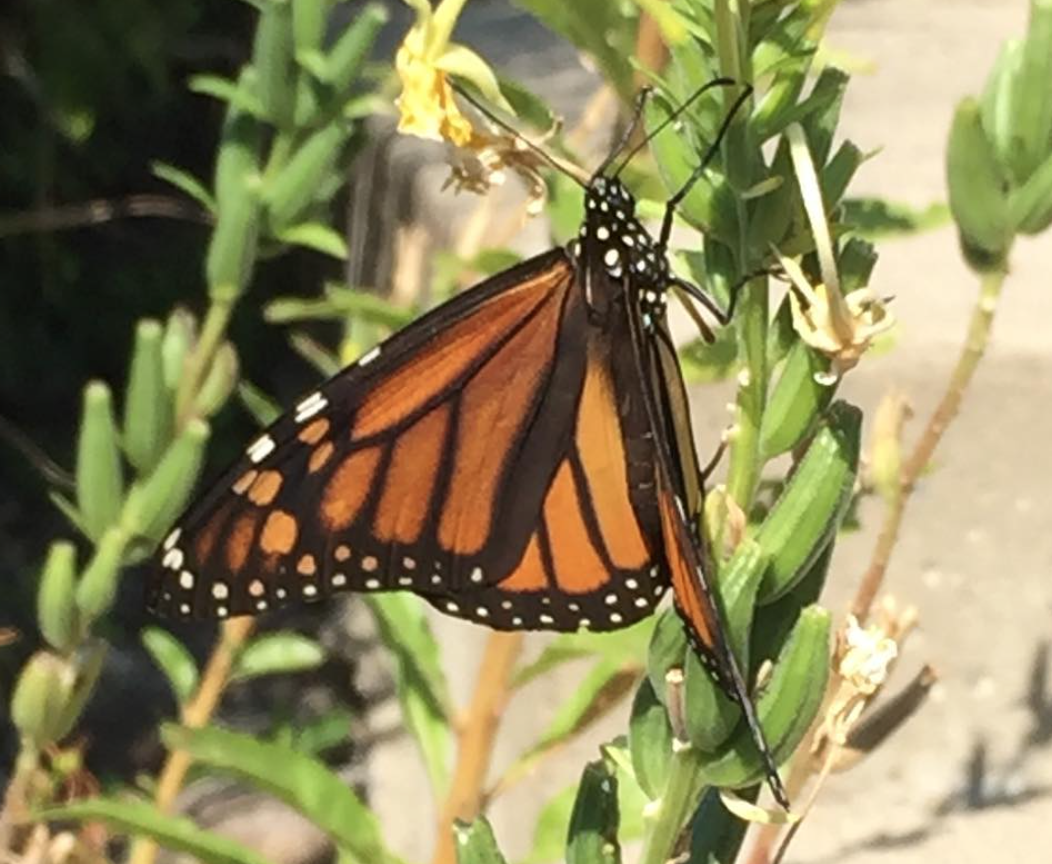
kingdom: Animalia
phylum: Arthropoda
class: Insecta
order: Lepidoptera
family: Nymphalidae
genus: Danaus
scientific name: Danaus plexippus
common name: Monarch
